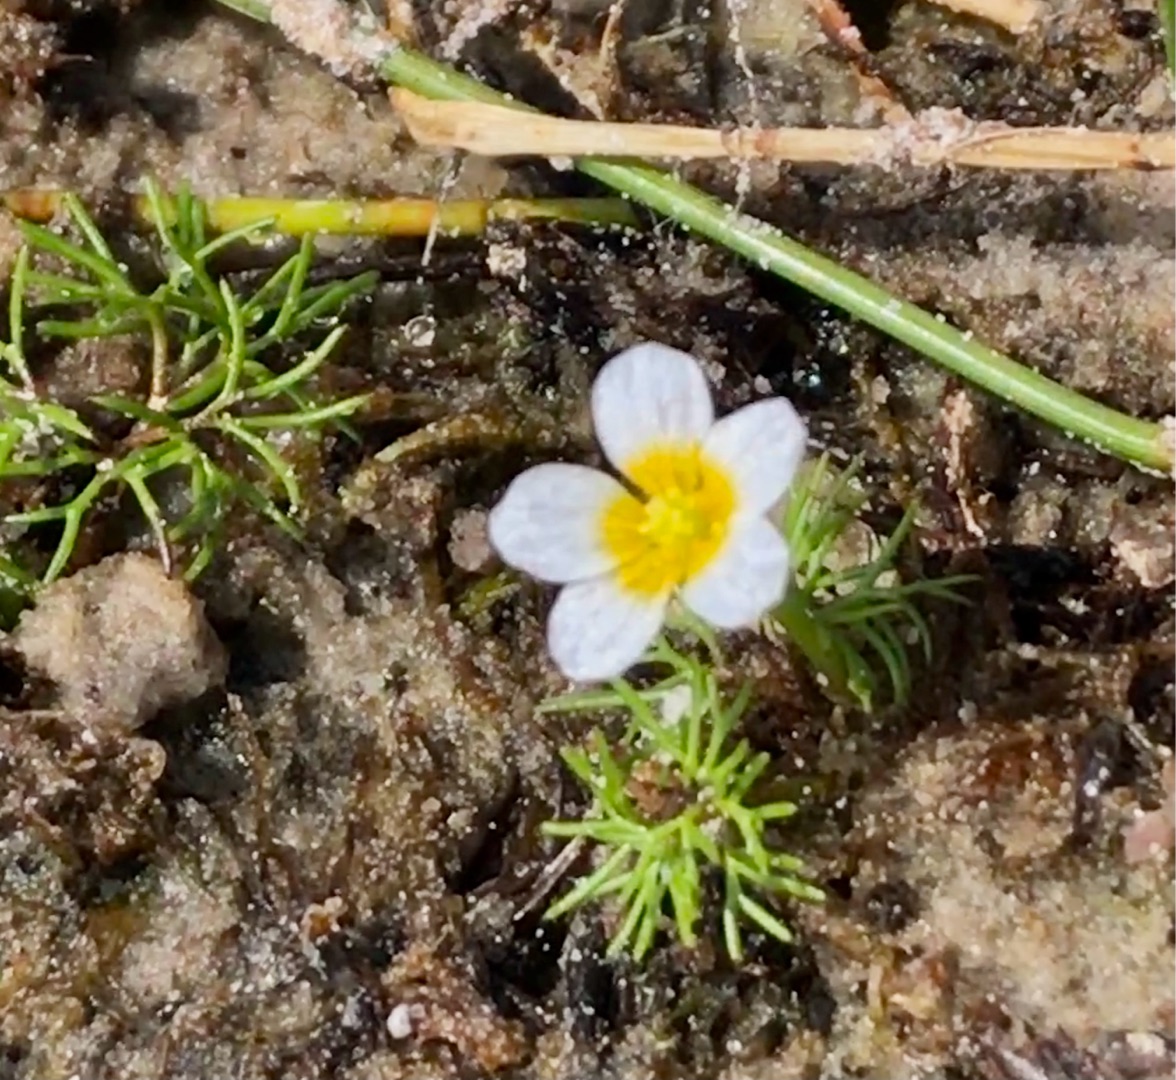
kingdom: Plantae
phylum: Tracheophyta
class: Magnoliopsida
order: Ranunculales
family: Ranunculaceae
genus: Ranunculus
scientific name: Ranunculus
